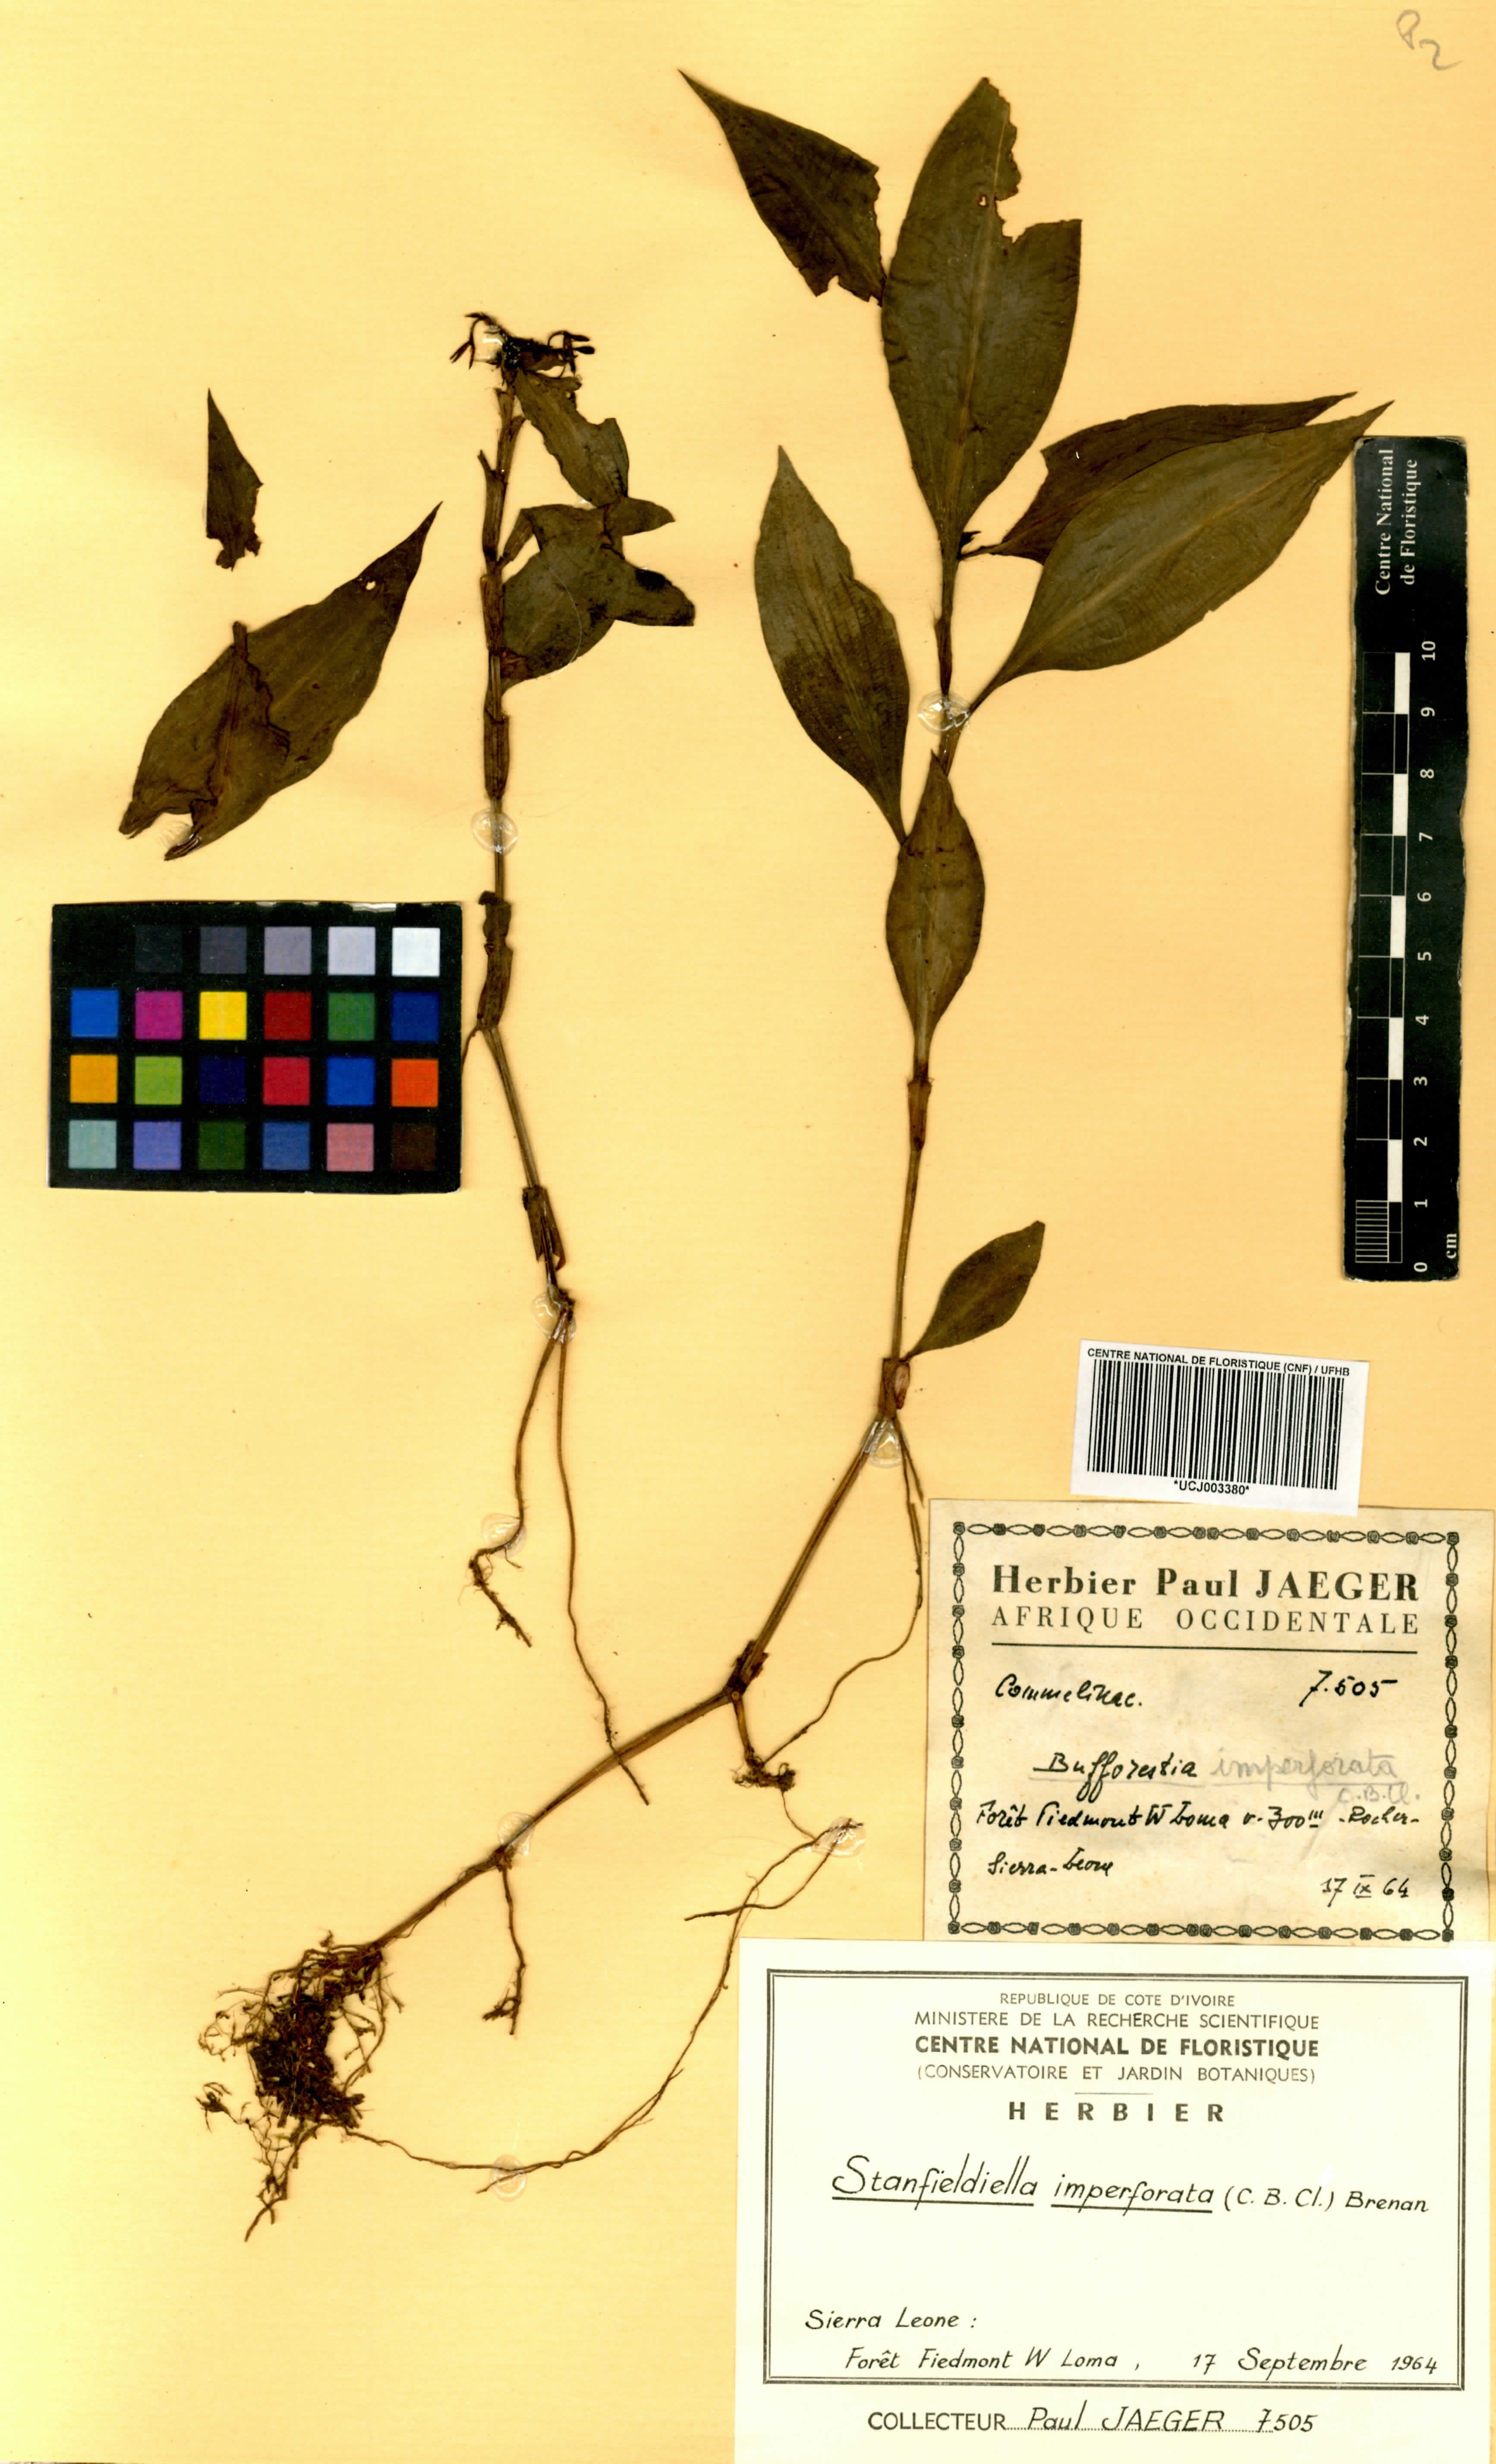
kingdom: Plantae
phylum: Tracheophyta
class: Liliopsida
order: Commelinales
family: Commelinaceae
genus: Stanfieldiella
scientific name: Stanfieldiella imperforata
